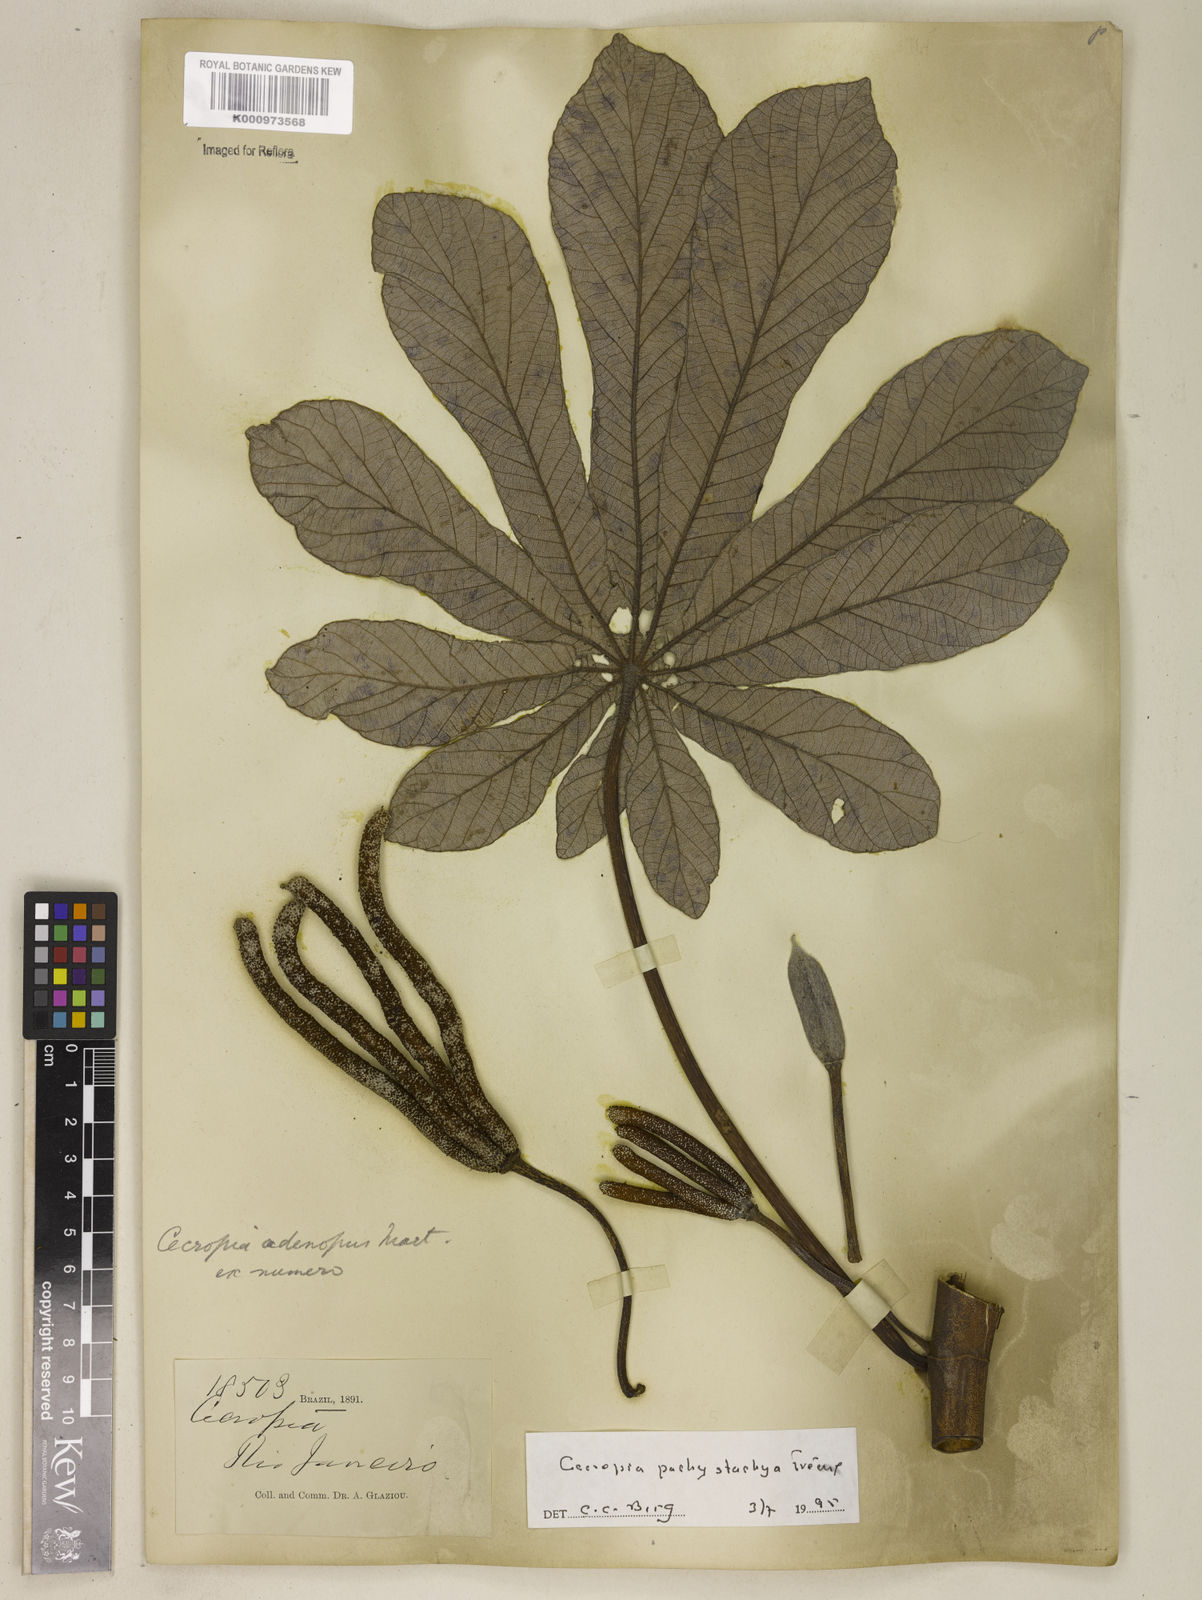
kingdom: Plantae
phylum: Tracheophyta
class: Magnoliopsida
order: Rosales
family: Urticaceae
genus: Cecropia
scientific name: Cecropia
